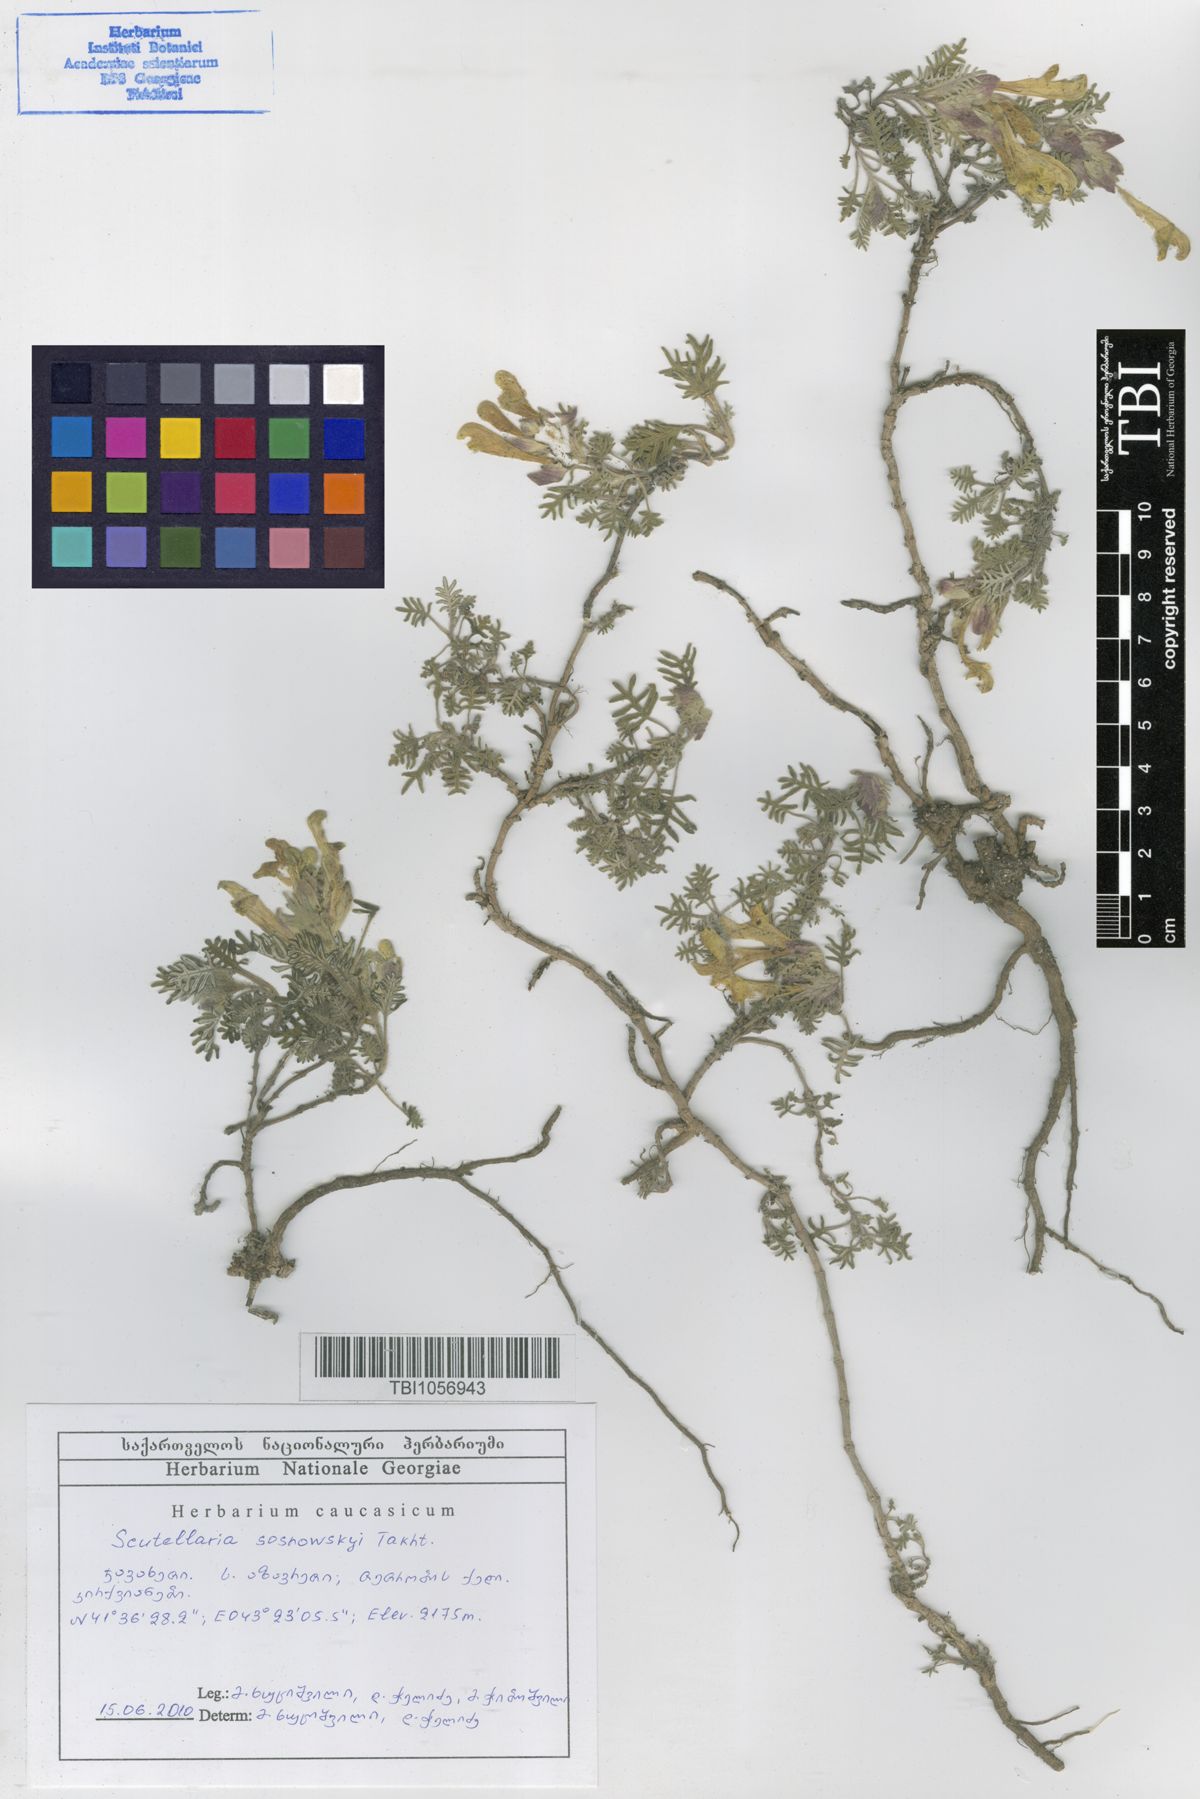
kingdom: Plantae
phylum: Tracheophyta
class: Magnoliopsida
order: Lamiales
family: Lamiaceae
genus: Scutellaria
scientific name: Scutellaria sosnowskyi
